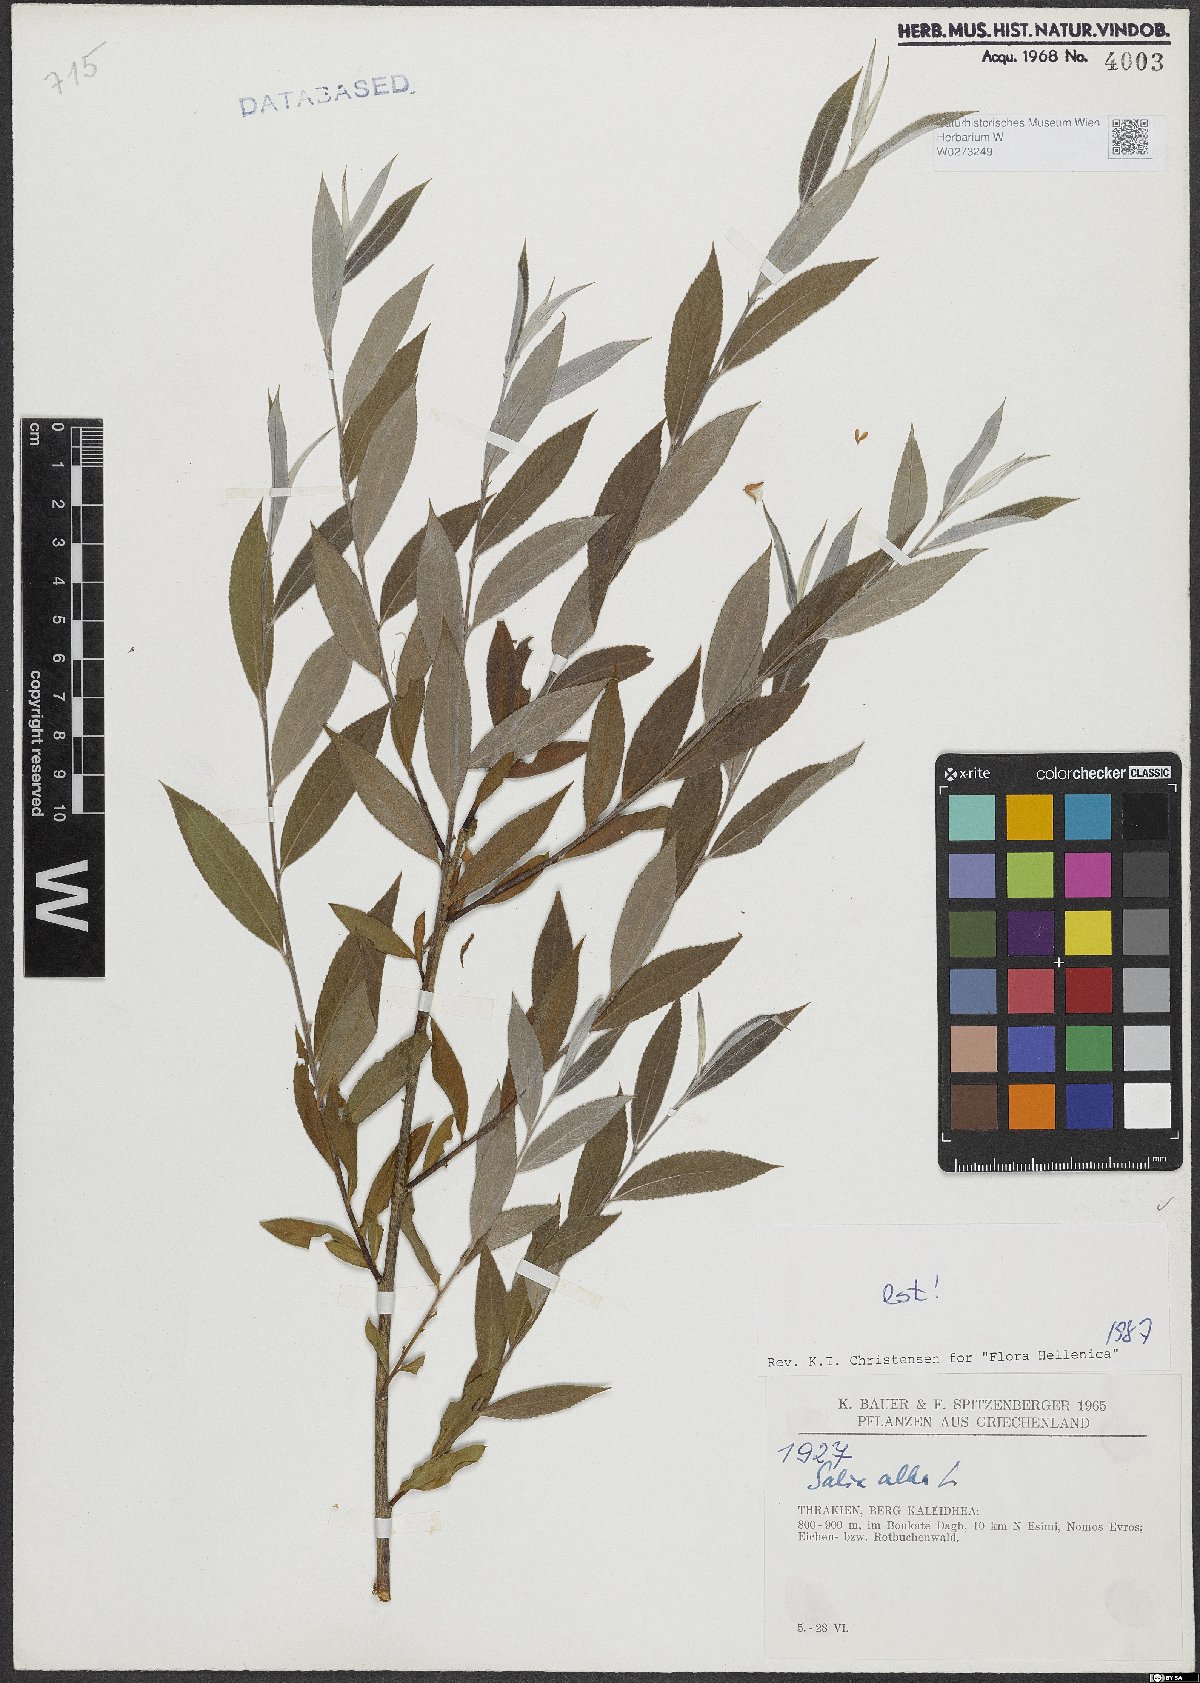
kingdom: Plantae
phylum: Tracheophyta
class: Magnoliopsida
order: Malpighiales
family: Salicaceae
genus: Salix
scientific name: Salix alba
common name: White willow
